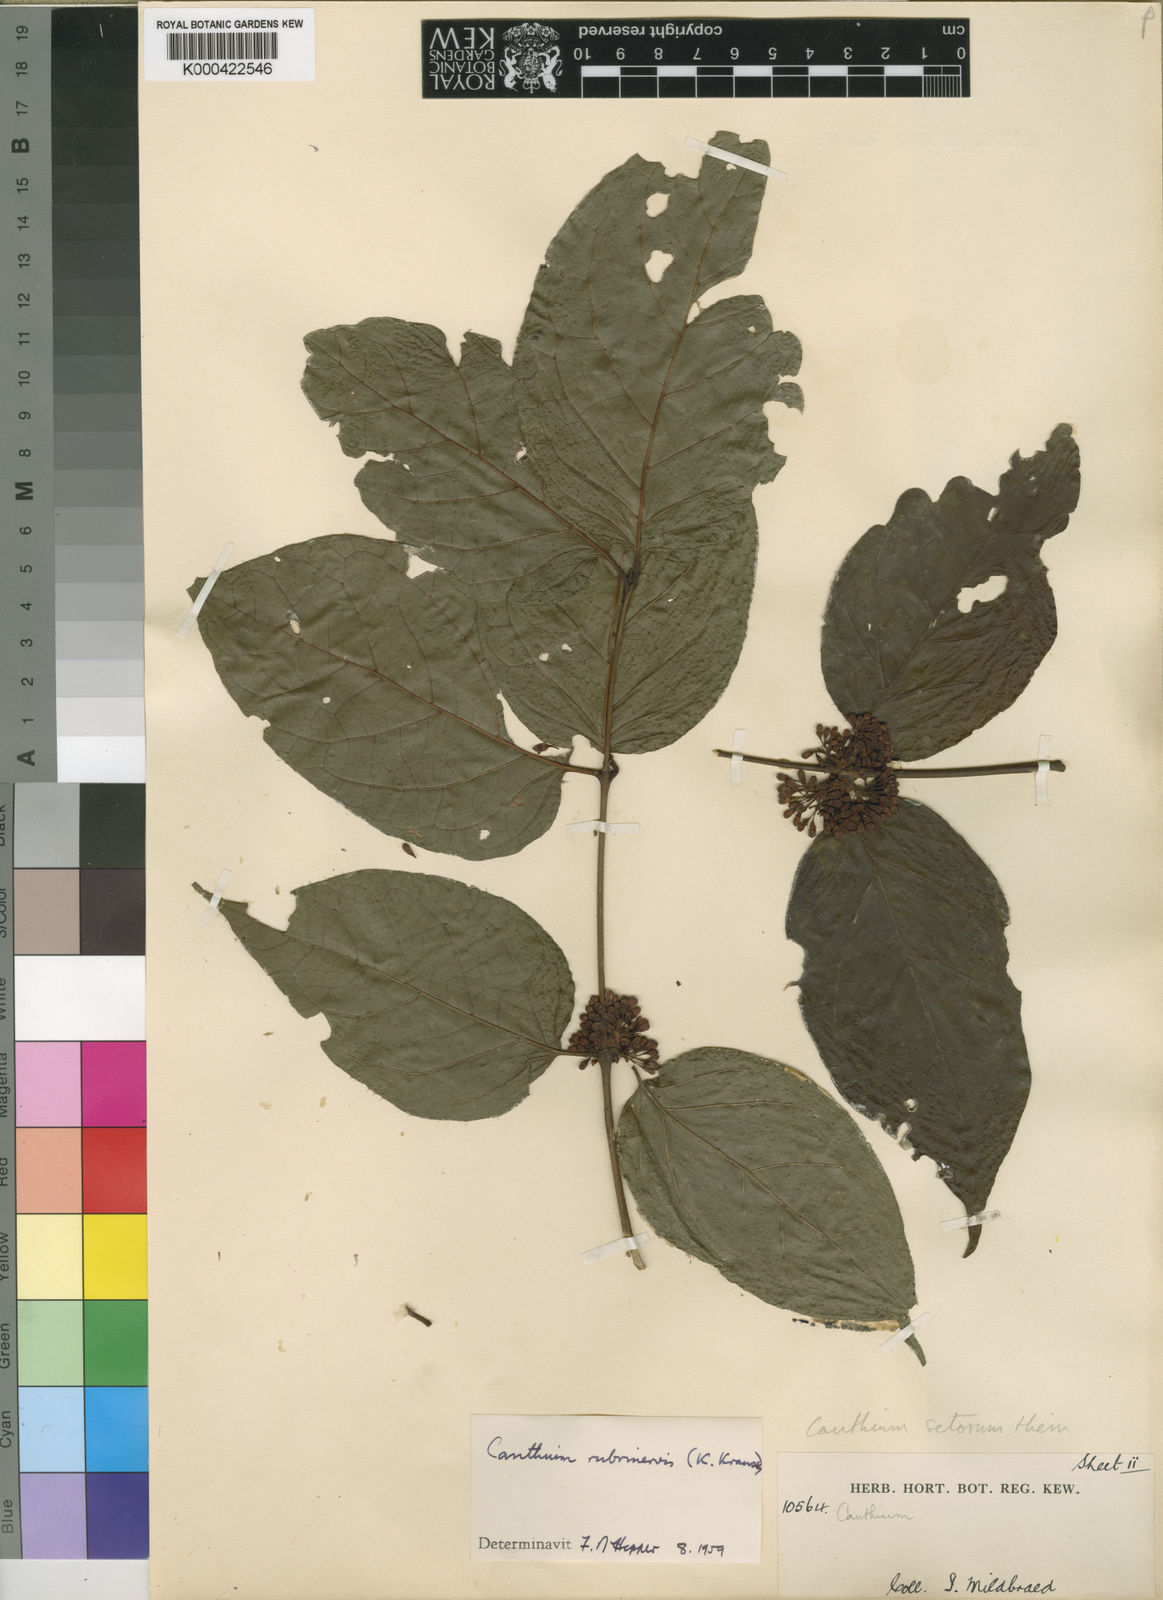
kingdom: Plantae
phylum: Tracheophyta
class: Magnoliopsida
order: Gentianales
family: Rubiaceae
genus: Keetia
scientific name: Keetia hispida
